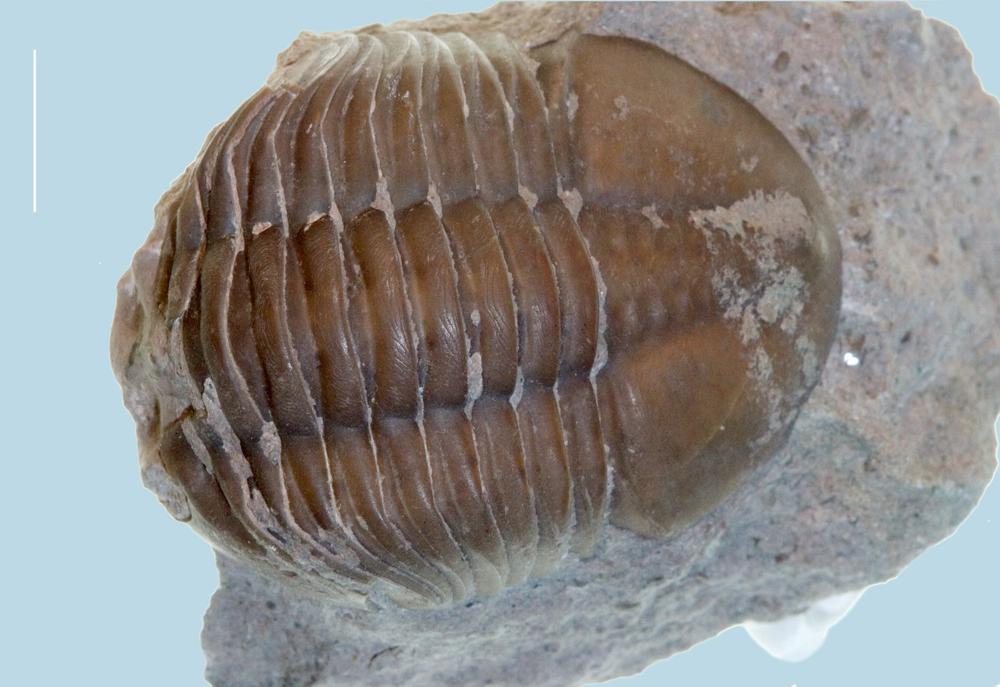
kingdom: Animalia
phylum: Arthropoda
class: Trilobita
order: Asaphida
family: Asaphidae
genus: Asaphus
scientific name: Asaphus expansus
